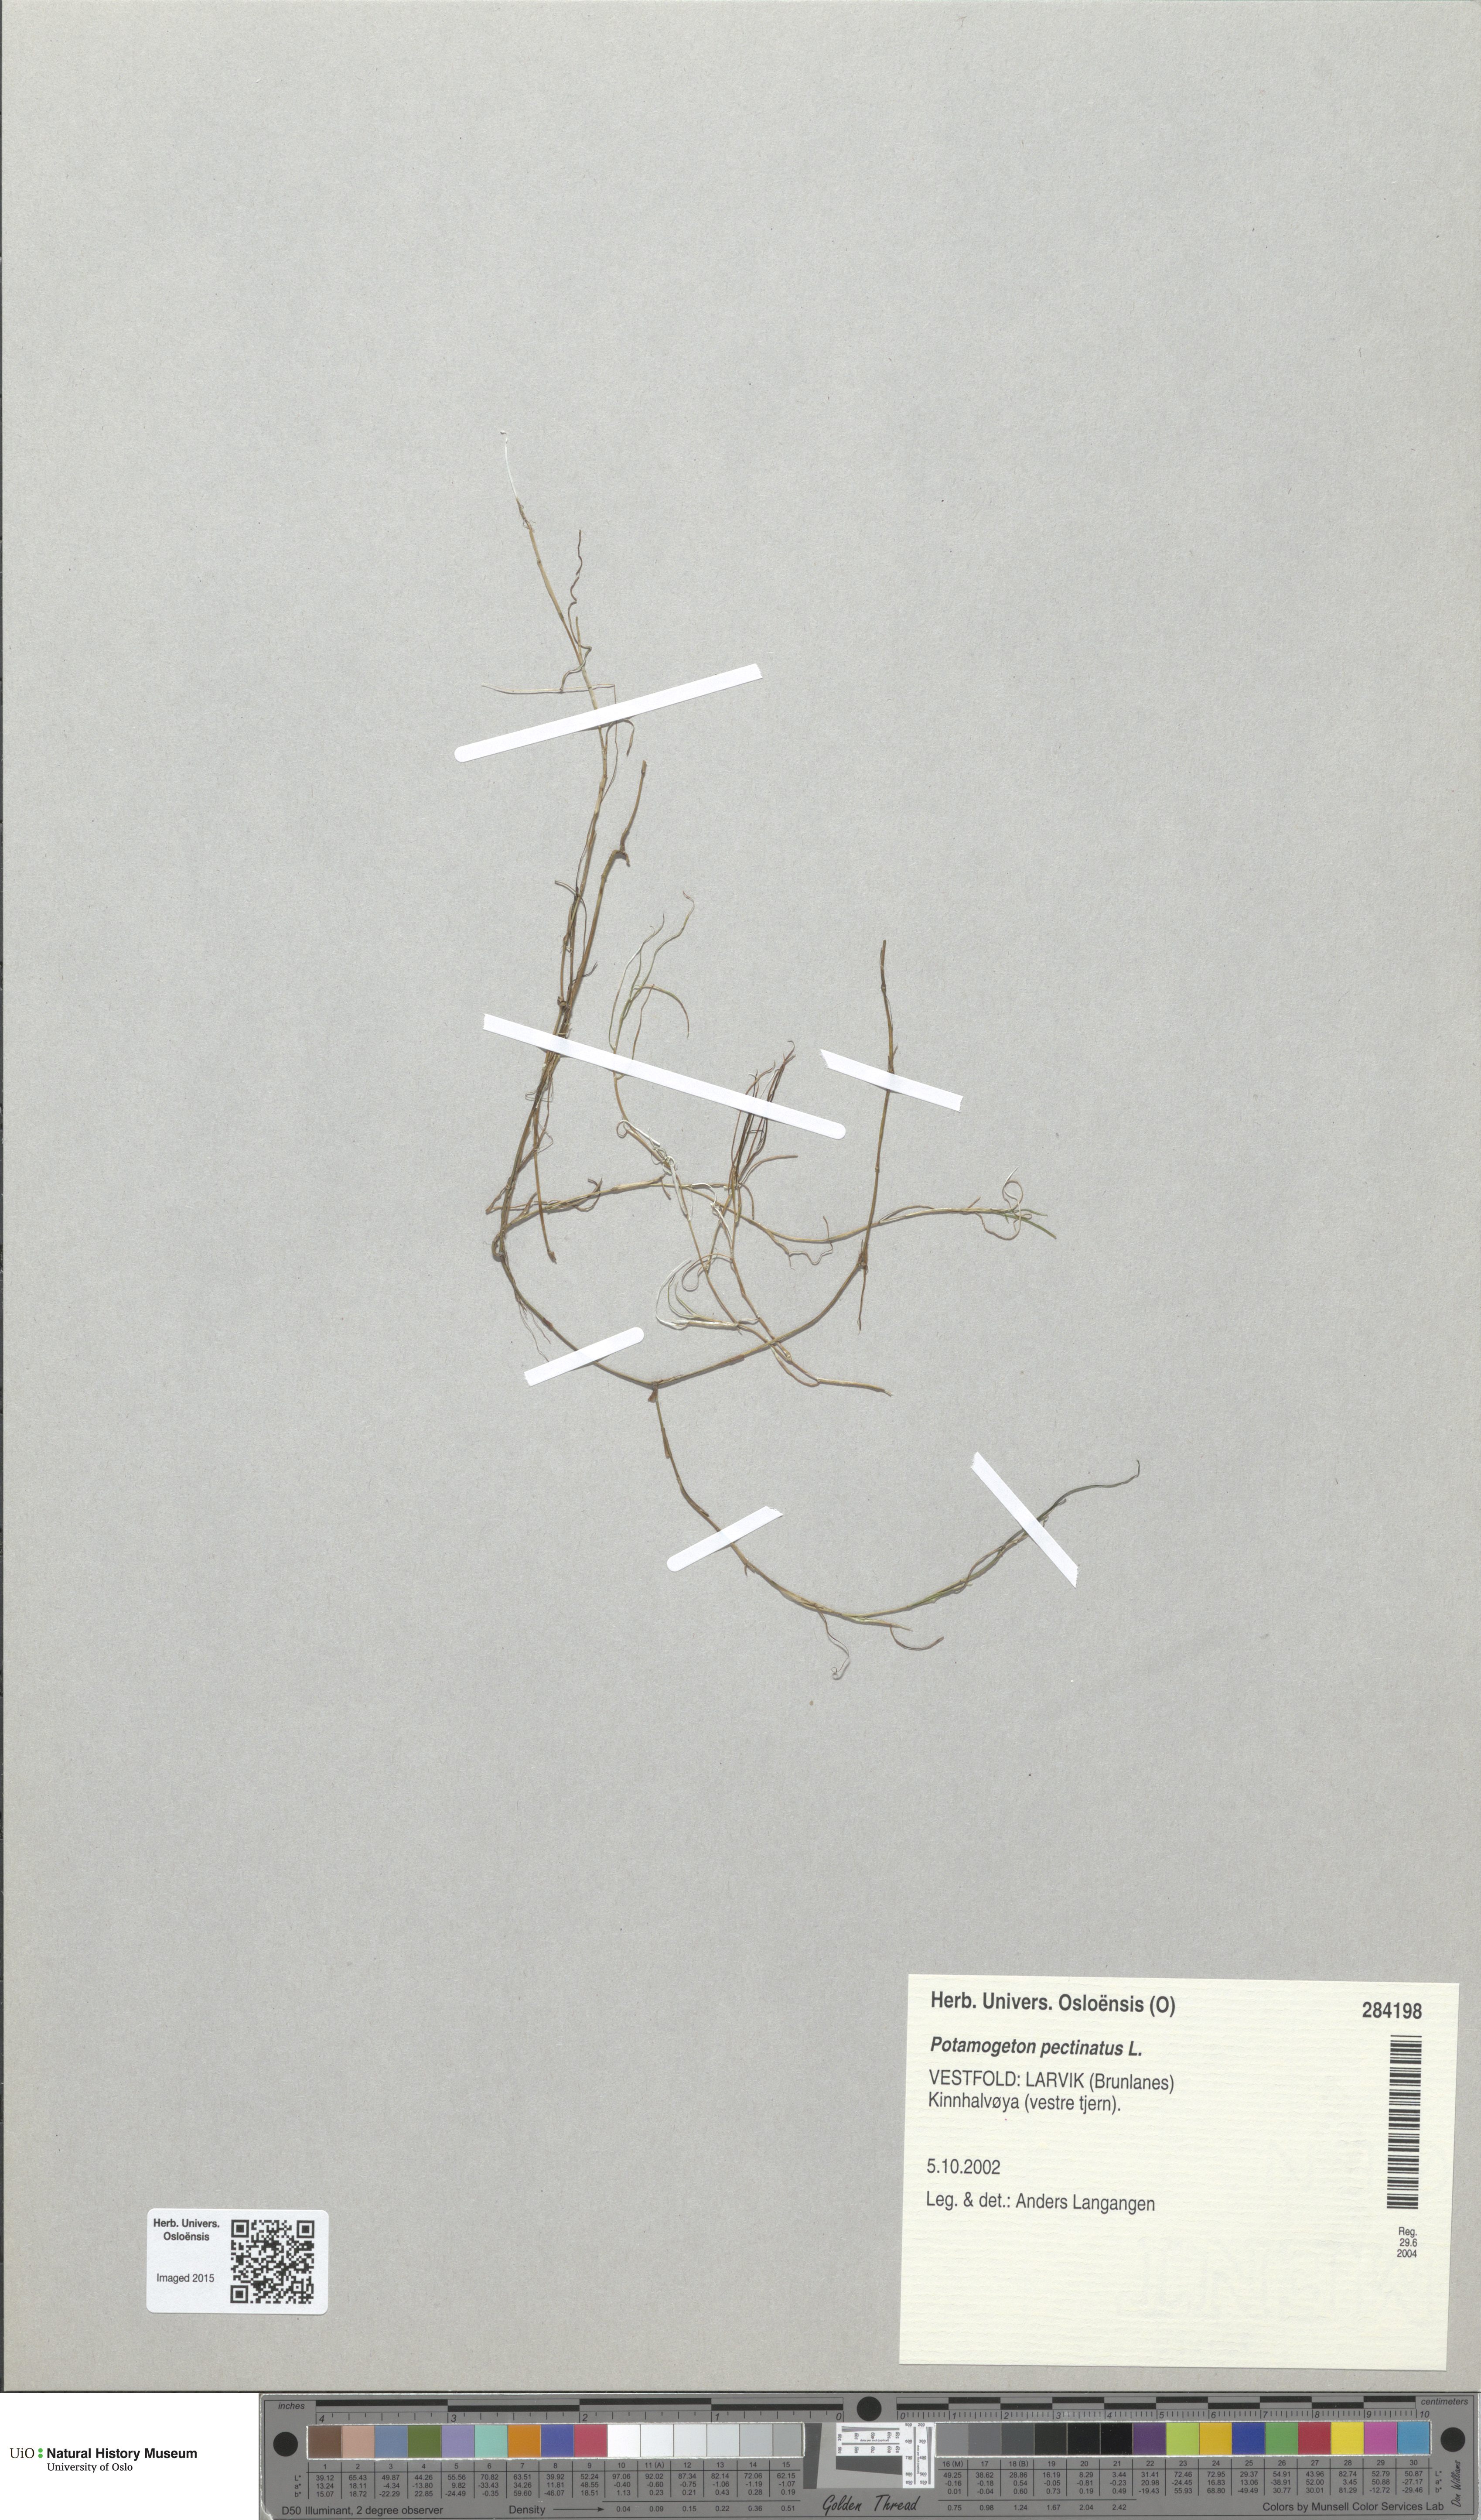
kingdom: Plantae
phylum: Tracheophyta
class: Liliopsida
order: Alismatales
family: Potamogetonaceae
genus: Stuckenia
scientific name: Stuckenia pectinata
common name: Sago pondweed
